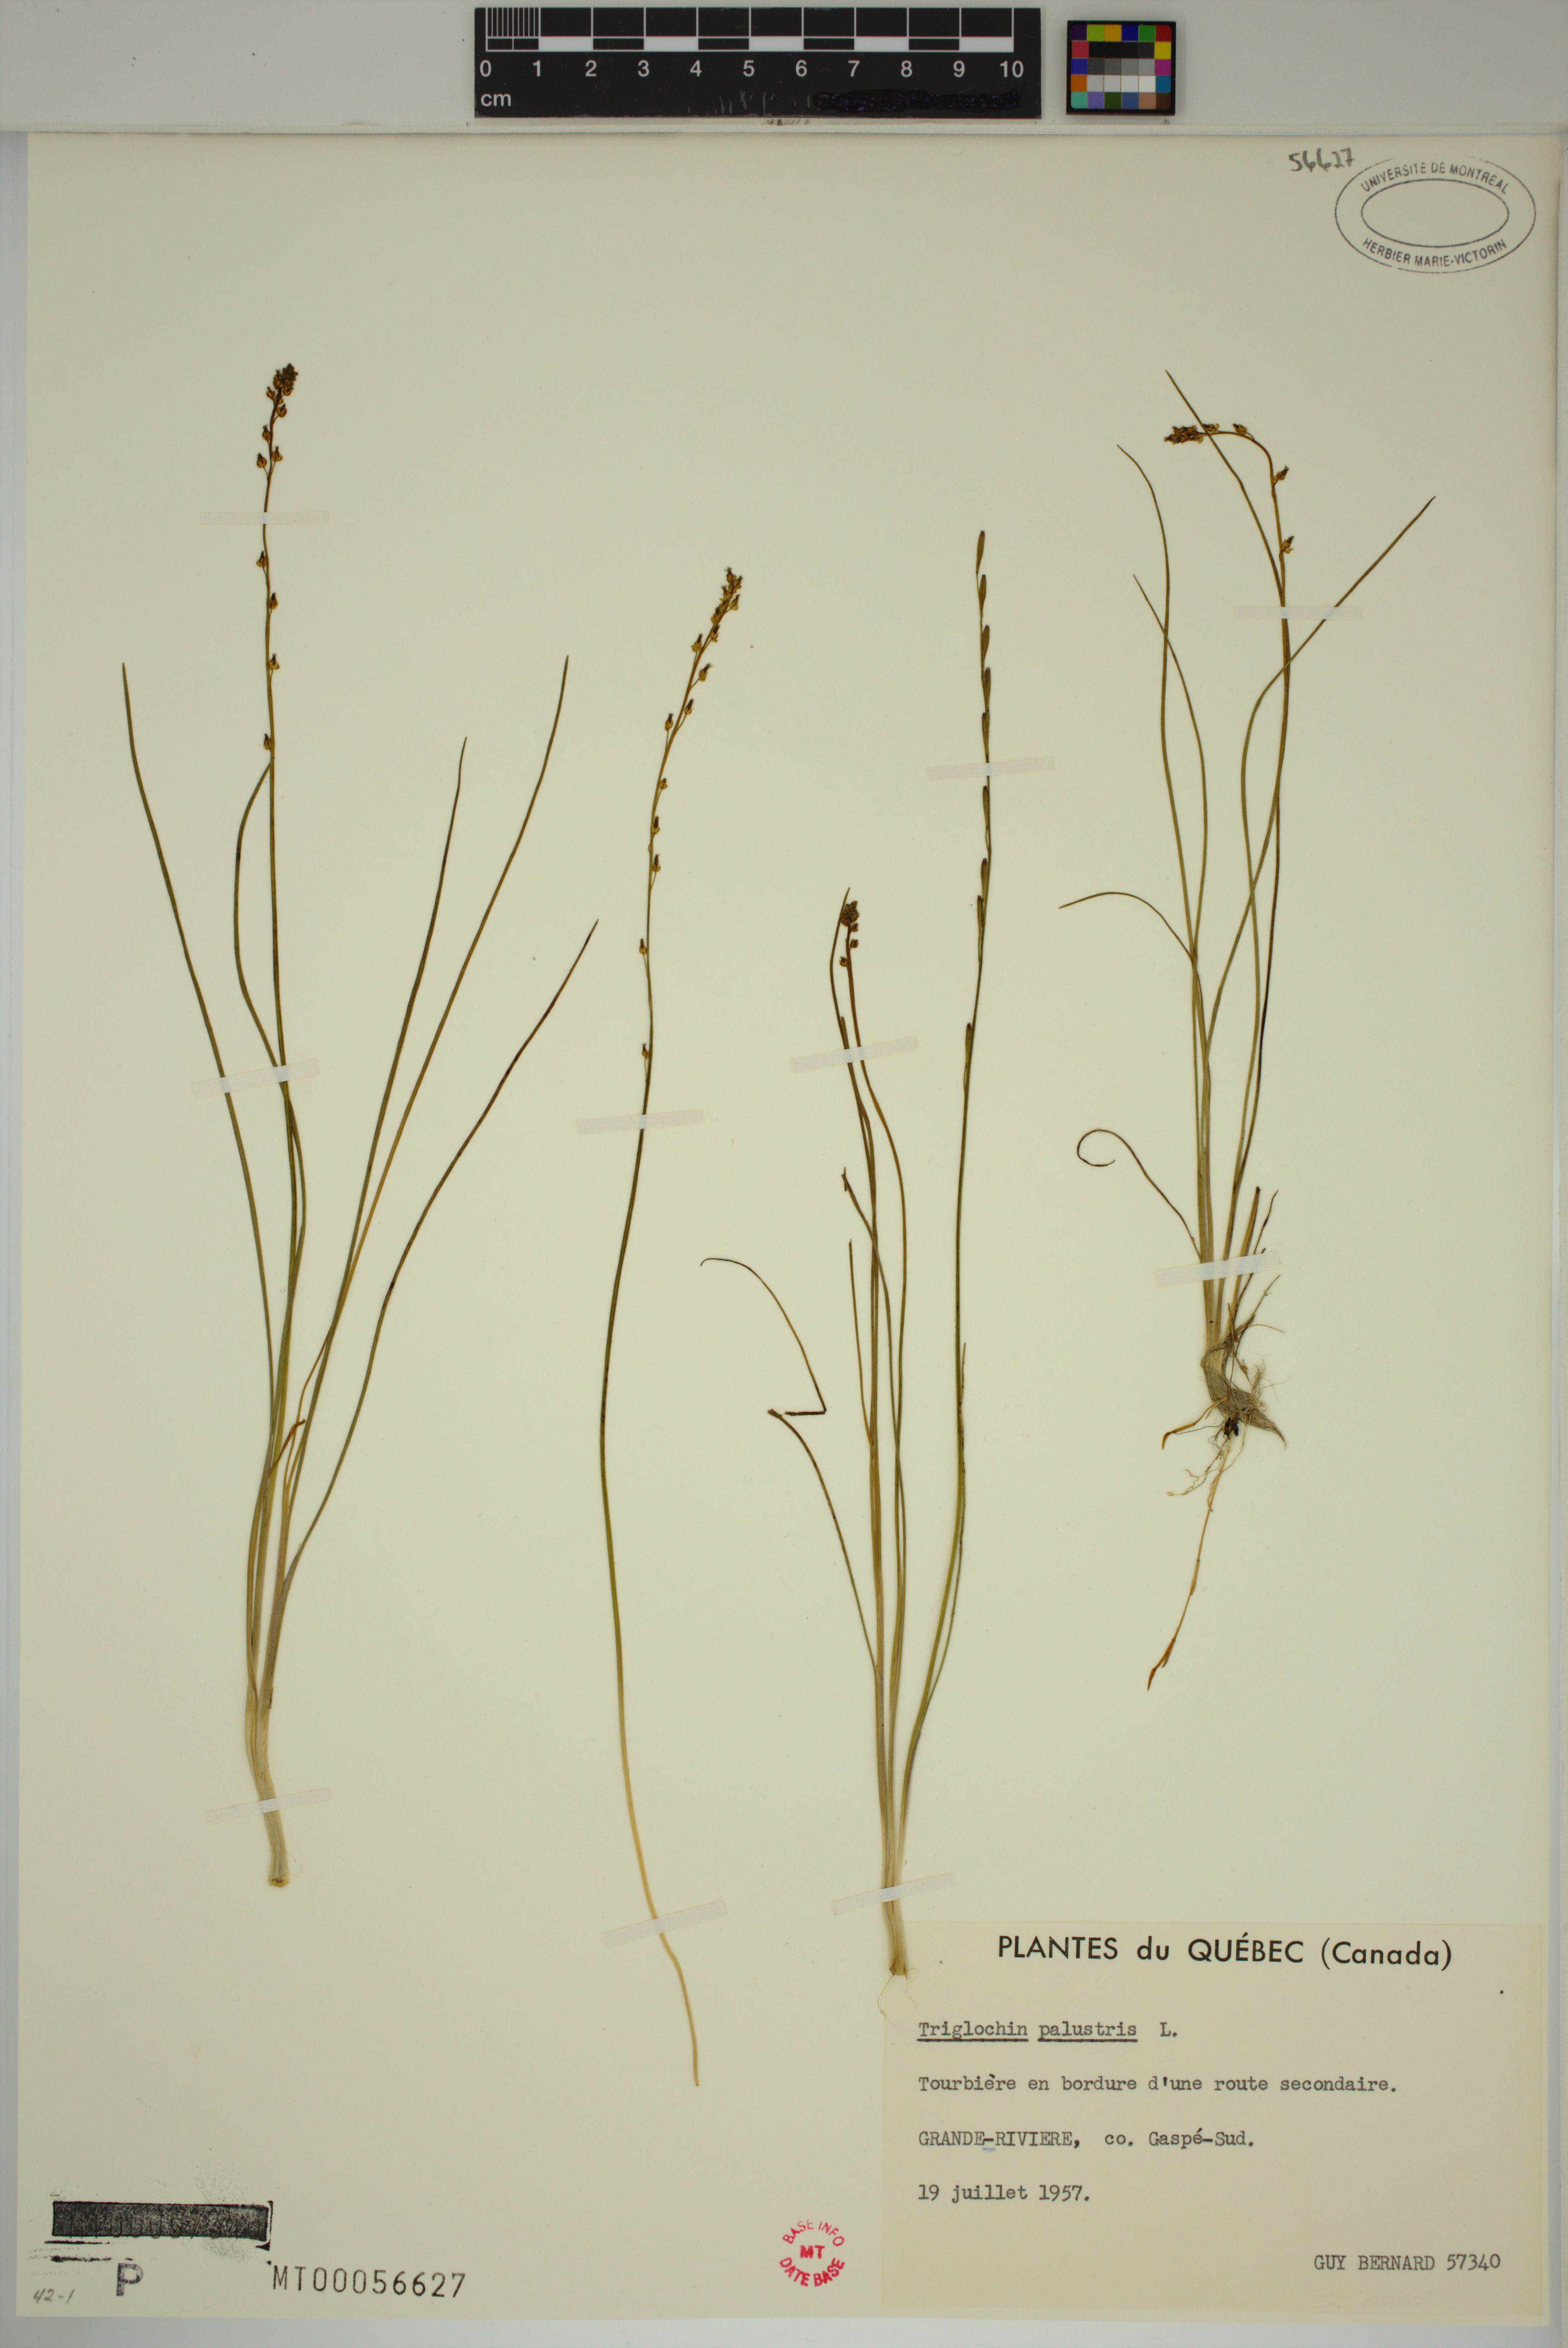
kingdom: Plantae
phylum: Tracheophyta
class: Liliopsida
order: Alismatales
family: Juncaginaceae
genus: Triglochin
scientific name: Triglochin palustris
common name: Marsh arrowgrass
